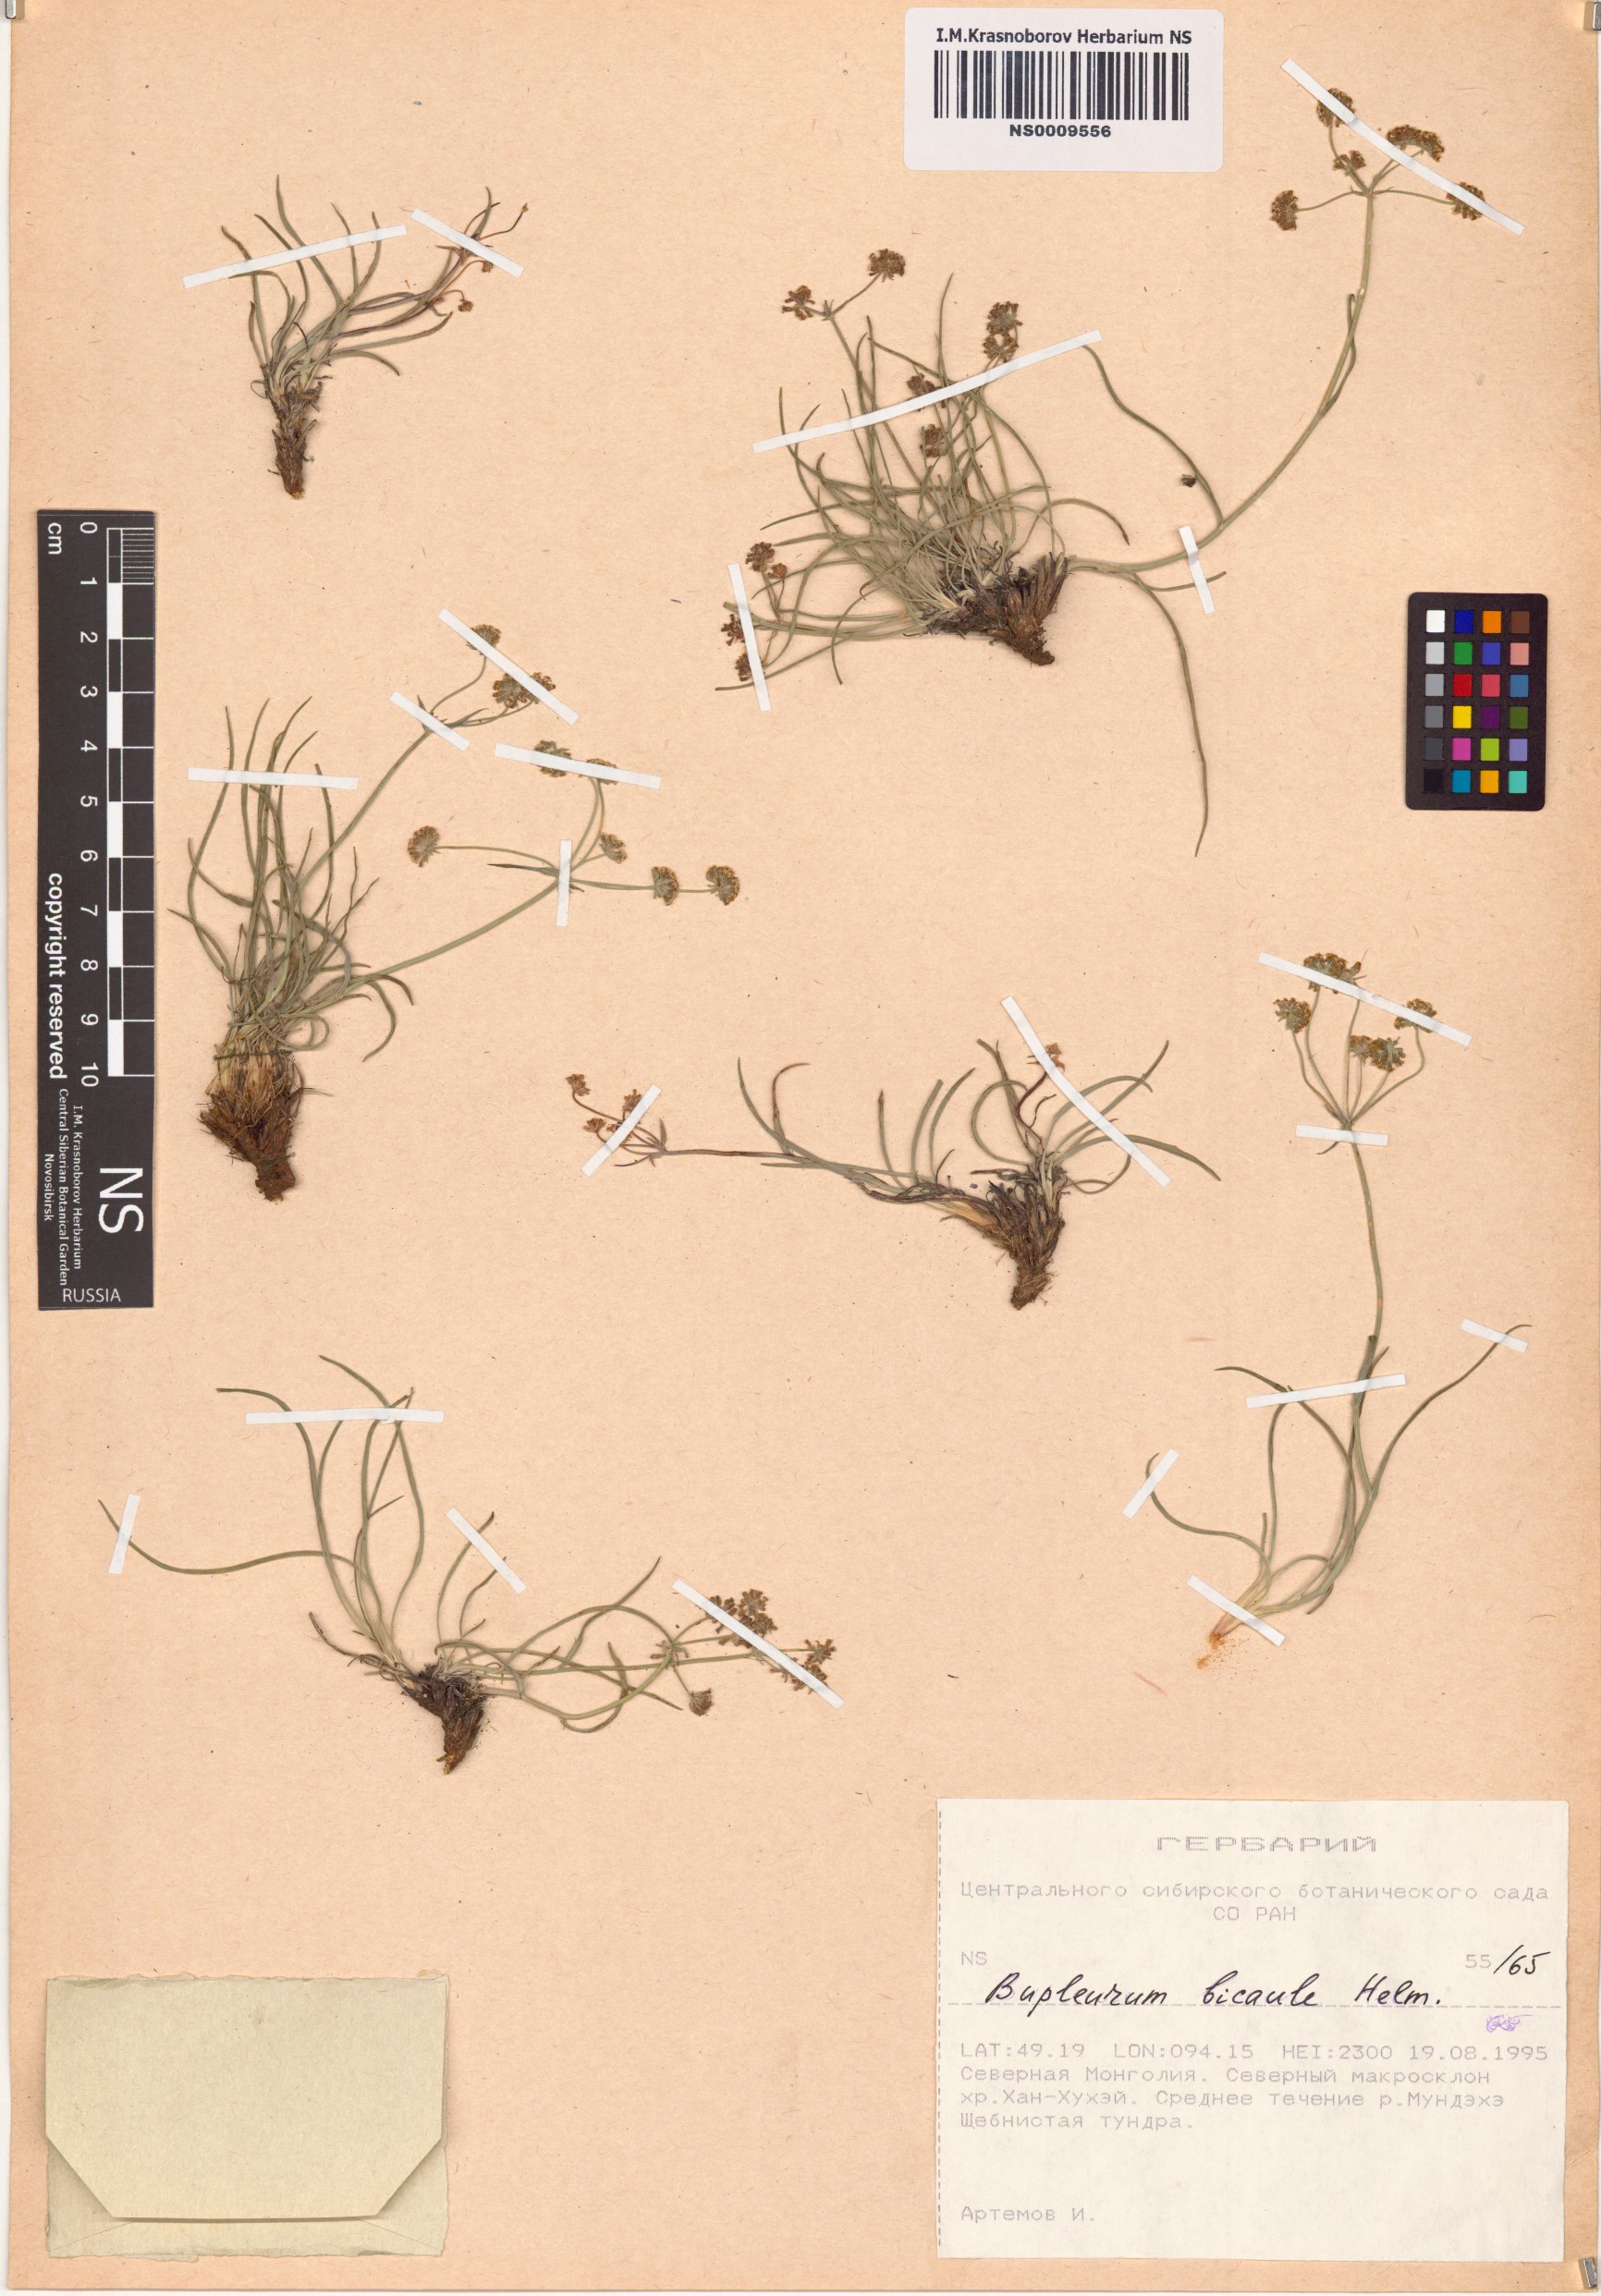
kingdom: Plantae
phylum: Tracheophyta
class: Magnoliopsida
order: Apiales
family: Apiaceae
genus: Bupleurum
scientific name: Bupleurum bicaule
